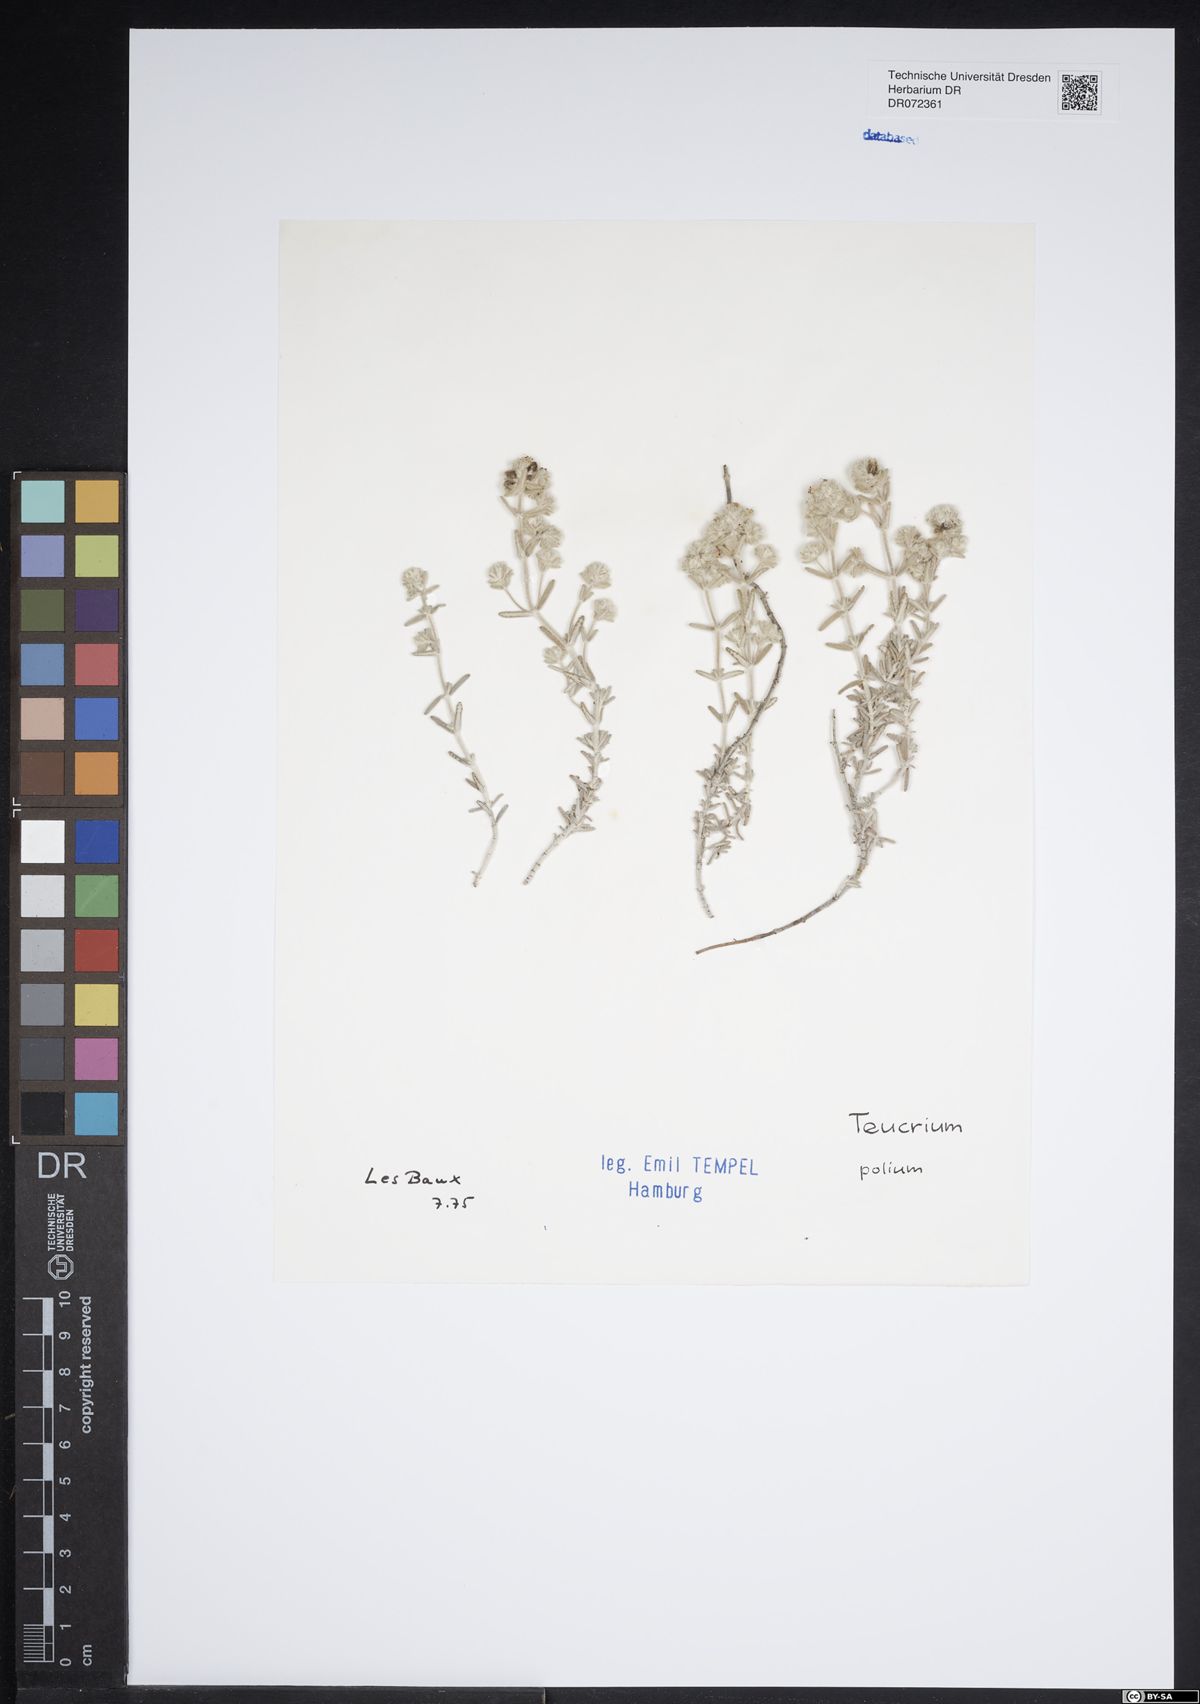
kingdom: Plantae
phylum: Tracheophyta
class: Magnoliopsida
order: Lamiales
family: Lamiaceae
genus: Teucrium
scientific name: Teucrium polium
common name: Poley
